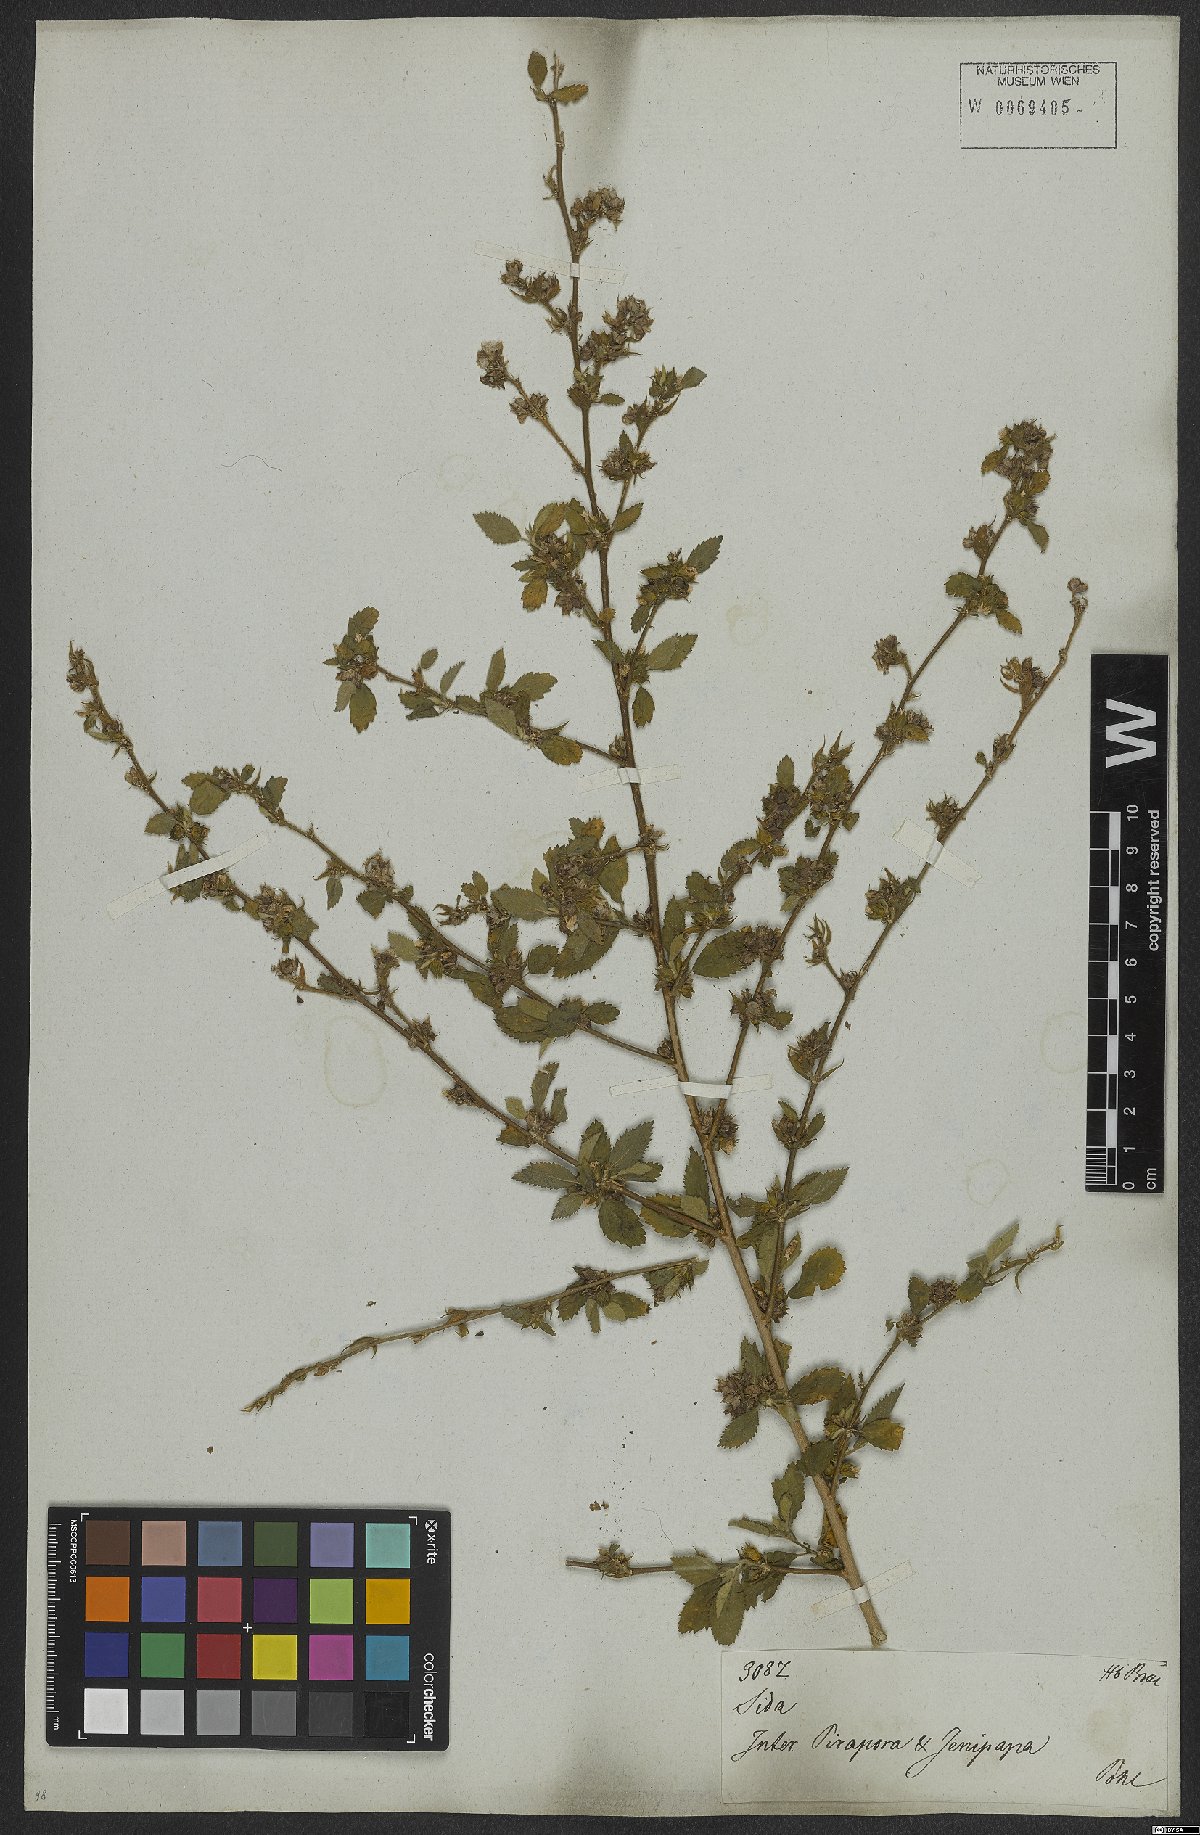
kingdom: Plantae
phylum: Tracheophyta
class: Magnoliopsida
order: Malvales
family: Malvaceae
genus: Sida
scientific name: Sida acuta
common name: Common wireweed
